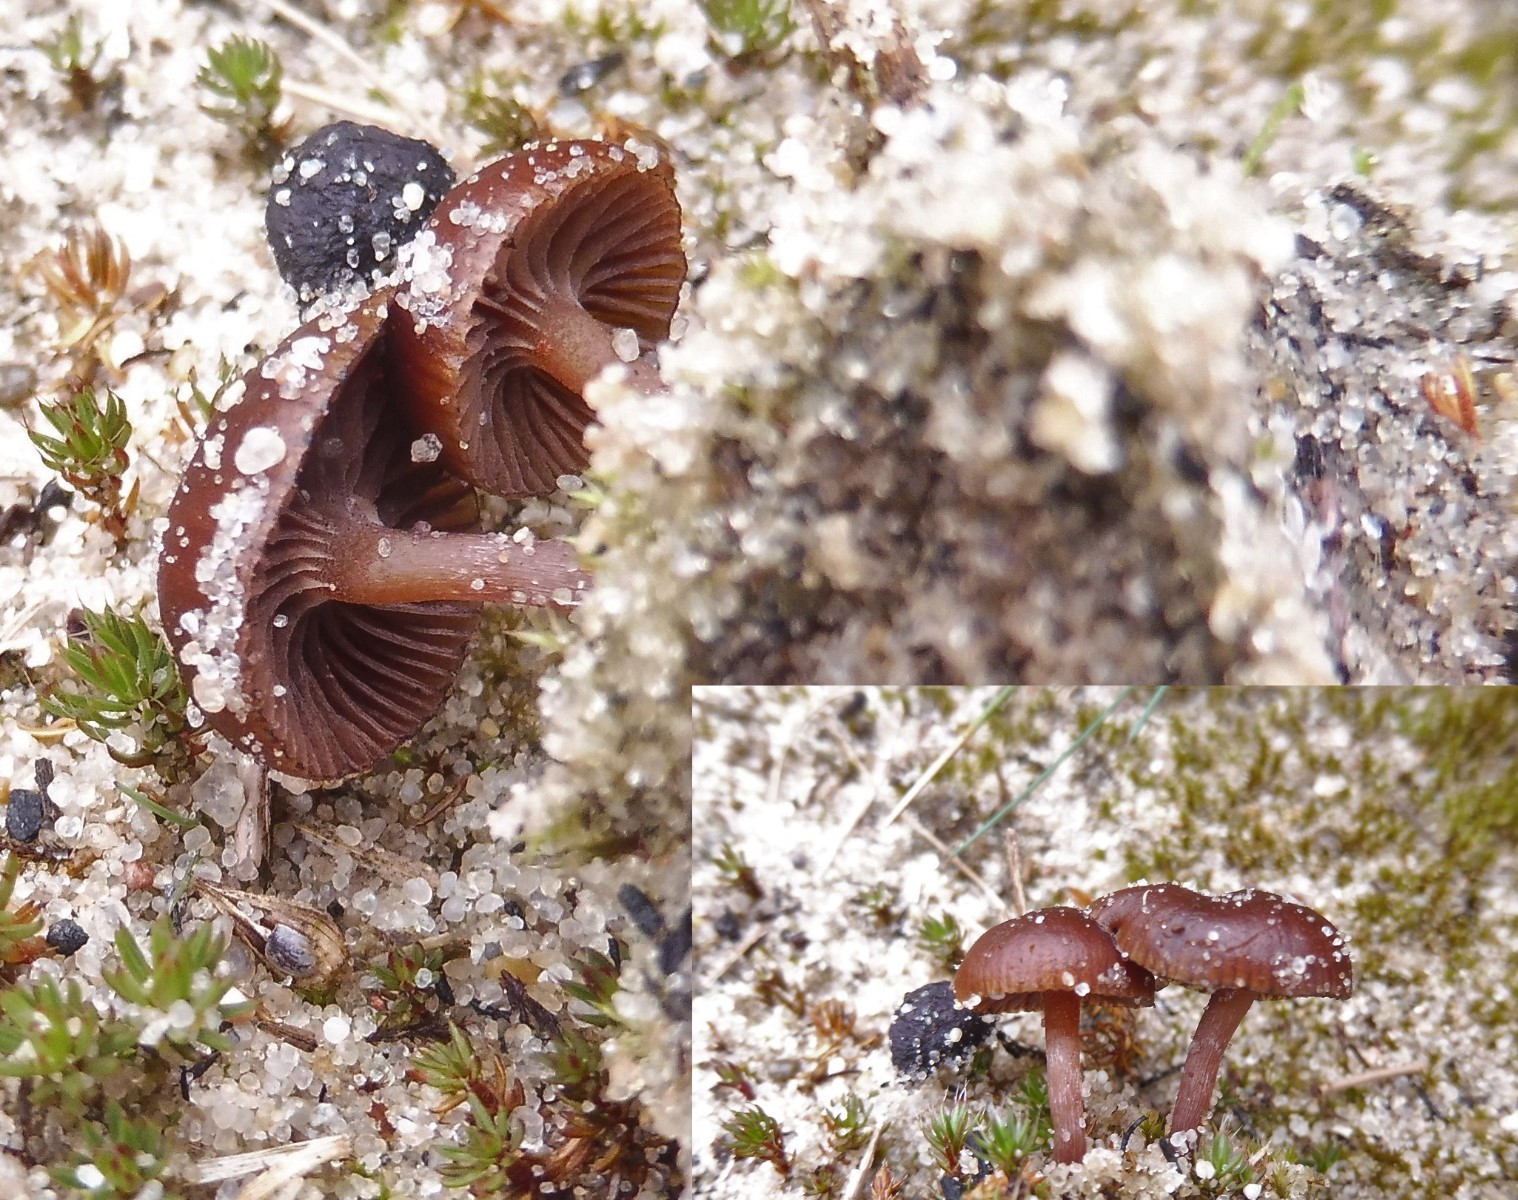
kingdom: Fungi
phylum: Basidiomycota
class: Agaricomycetes
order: Agaricales
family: Strophariaceae
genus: Deconica
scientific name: Deconica montana
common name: rødbrun stråhat
